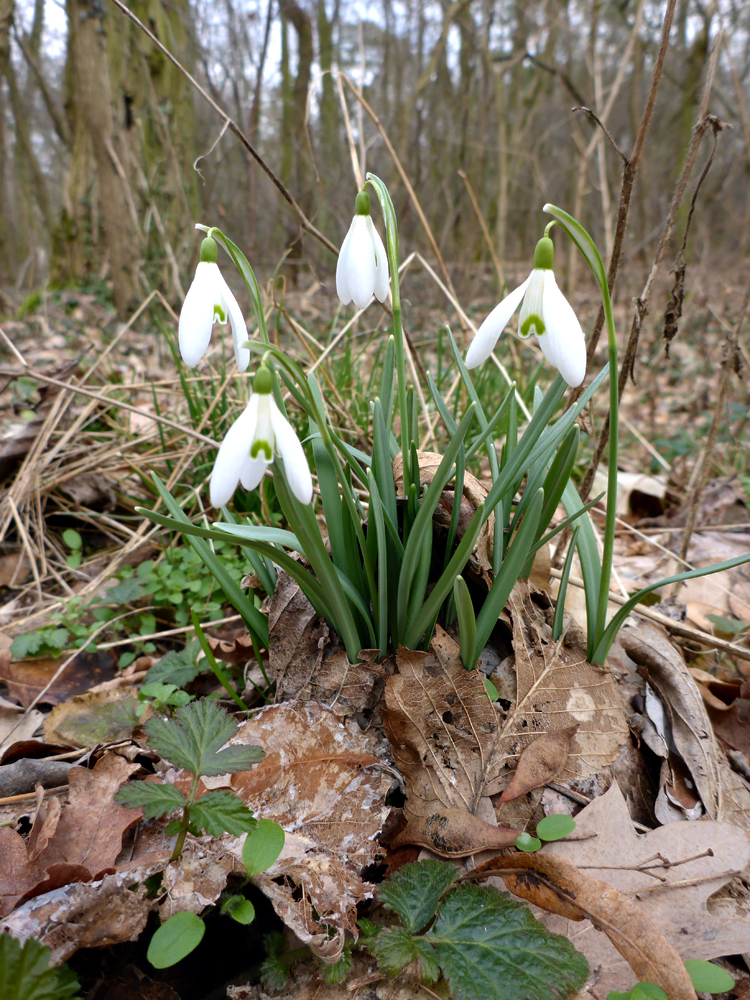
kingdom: Plantae
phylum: Tracheophyta
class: Liliopsida
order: Asparagales
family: Amaryllidaceae
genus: Galanthus
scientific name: Galanthus nivalis
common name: Snowdrop
